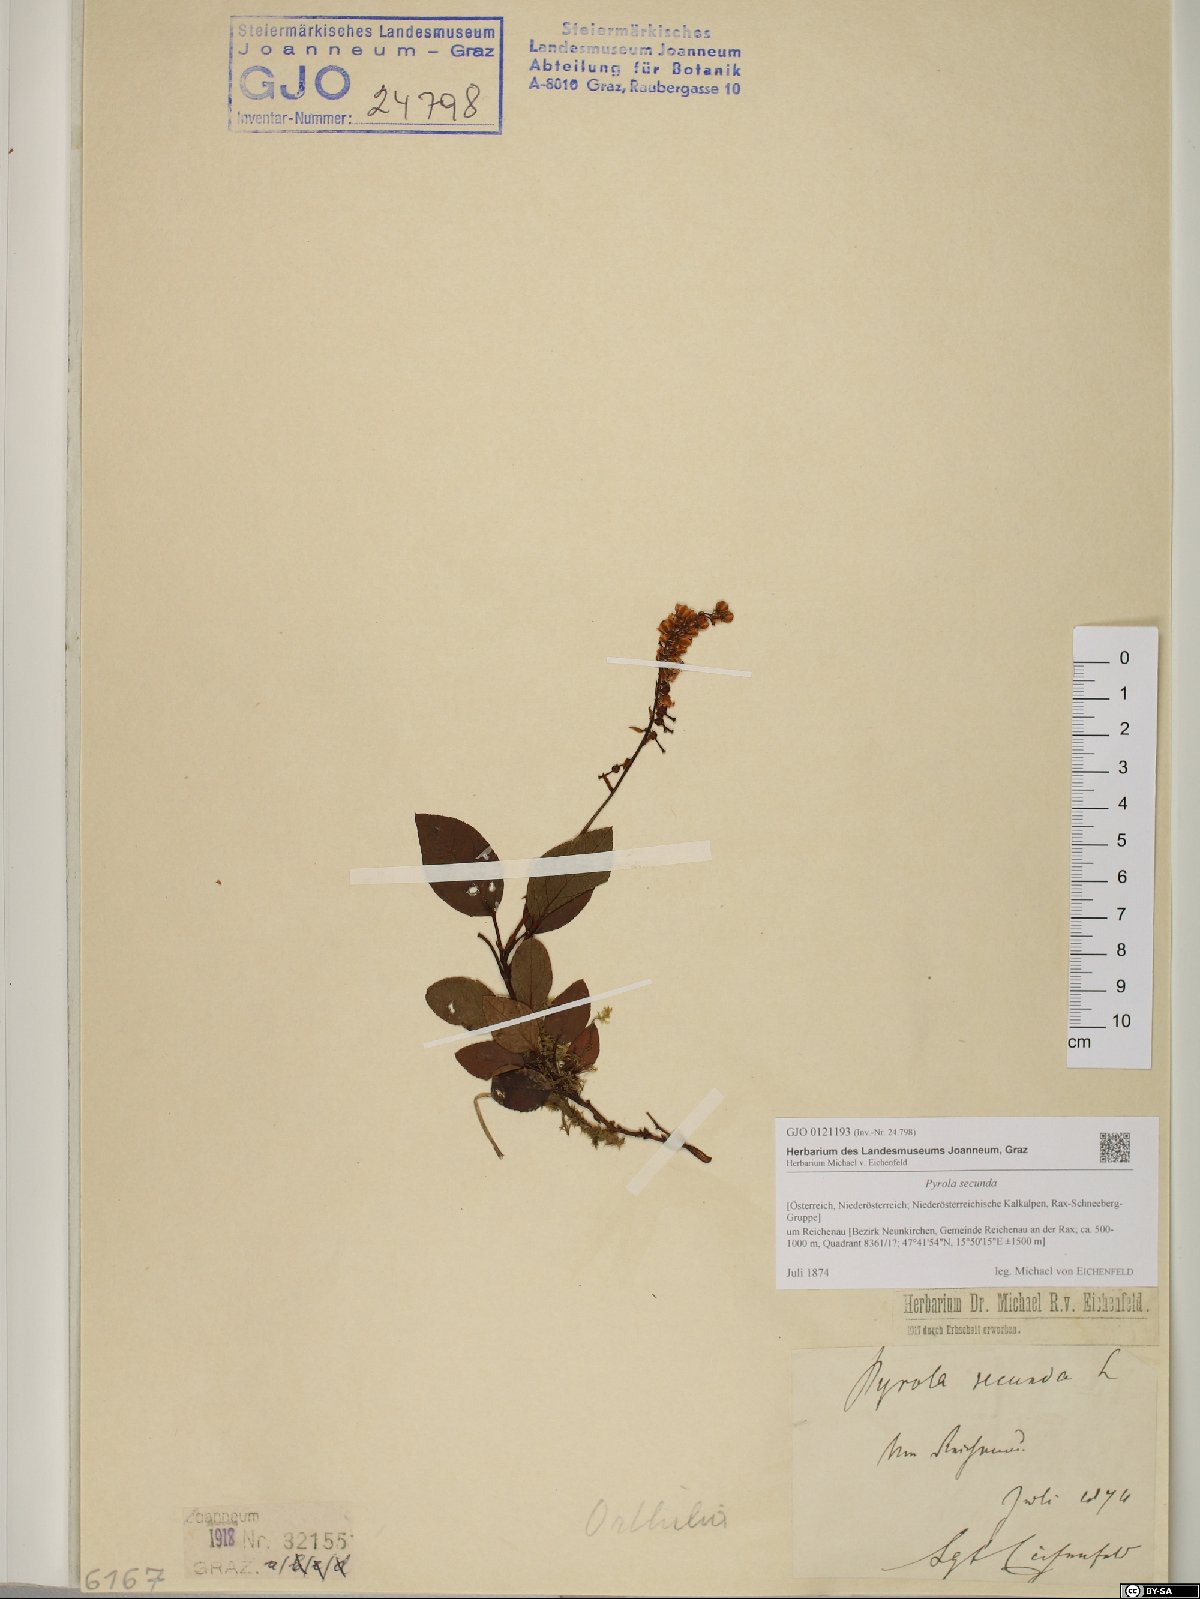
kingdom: Plantae
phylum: Tracheophyta
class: Magnoliopsida
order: Ericales
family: Ericaceae
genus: Orthilia
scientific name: Orthilia secunda
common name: One-sided orthilia
